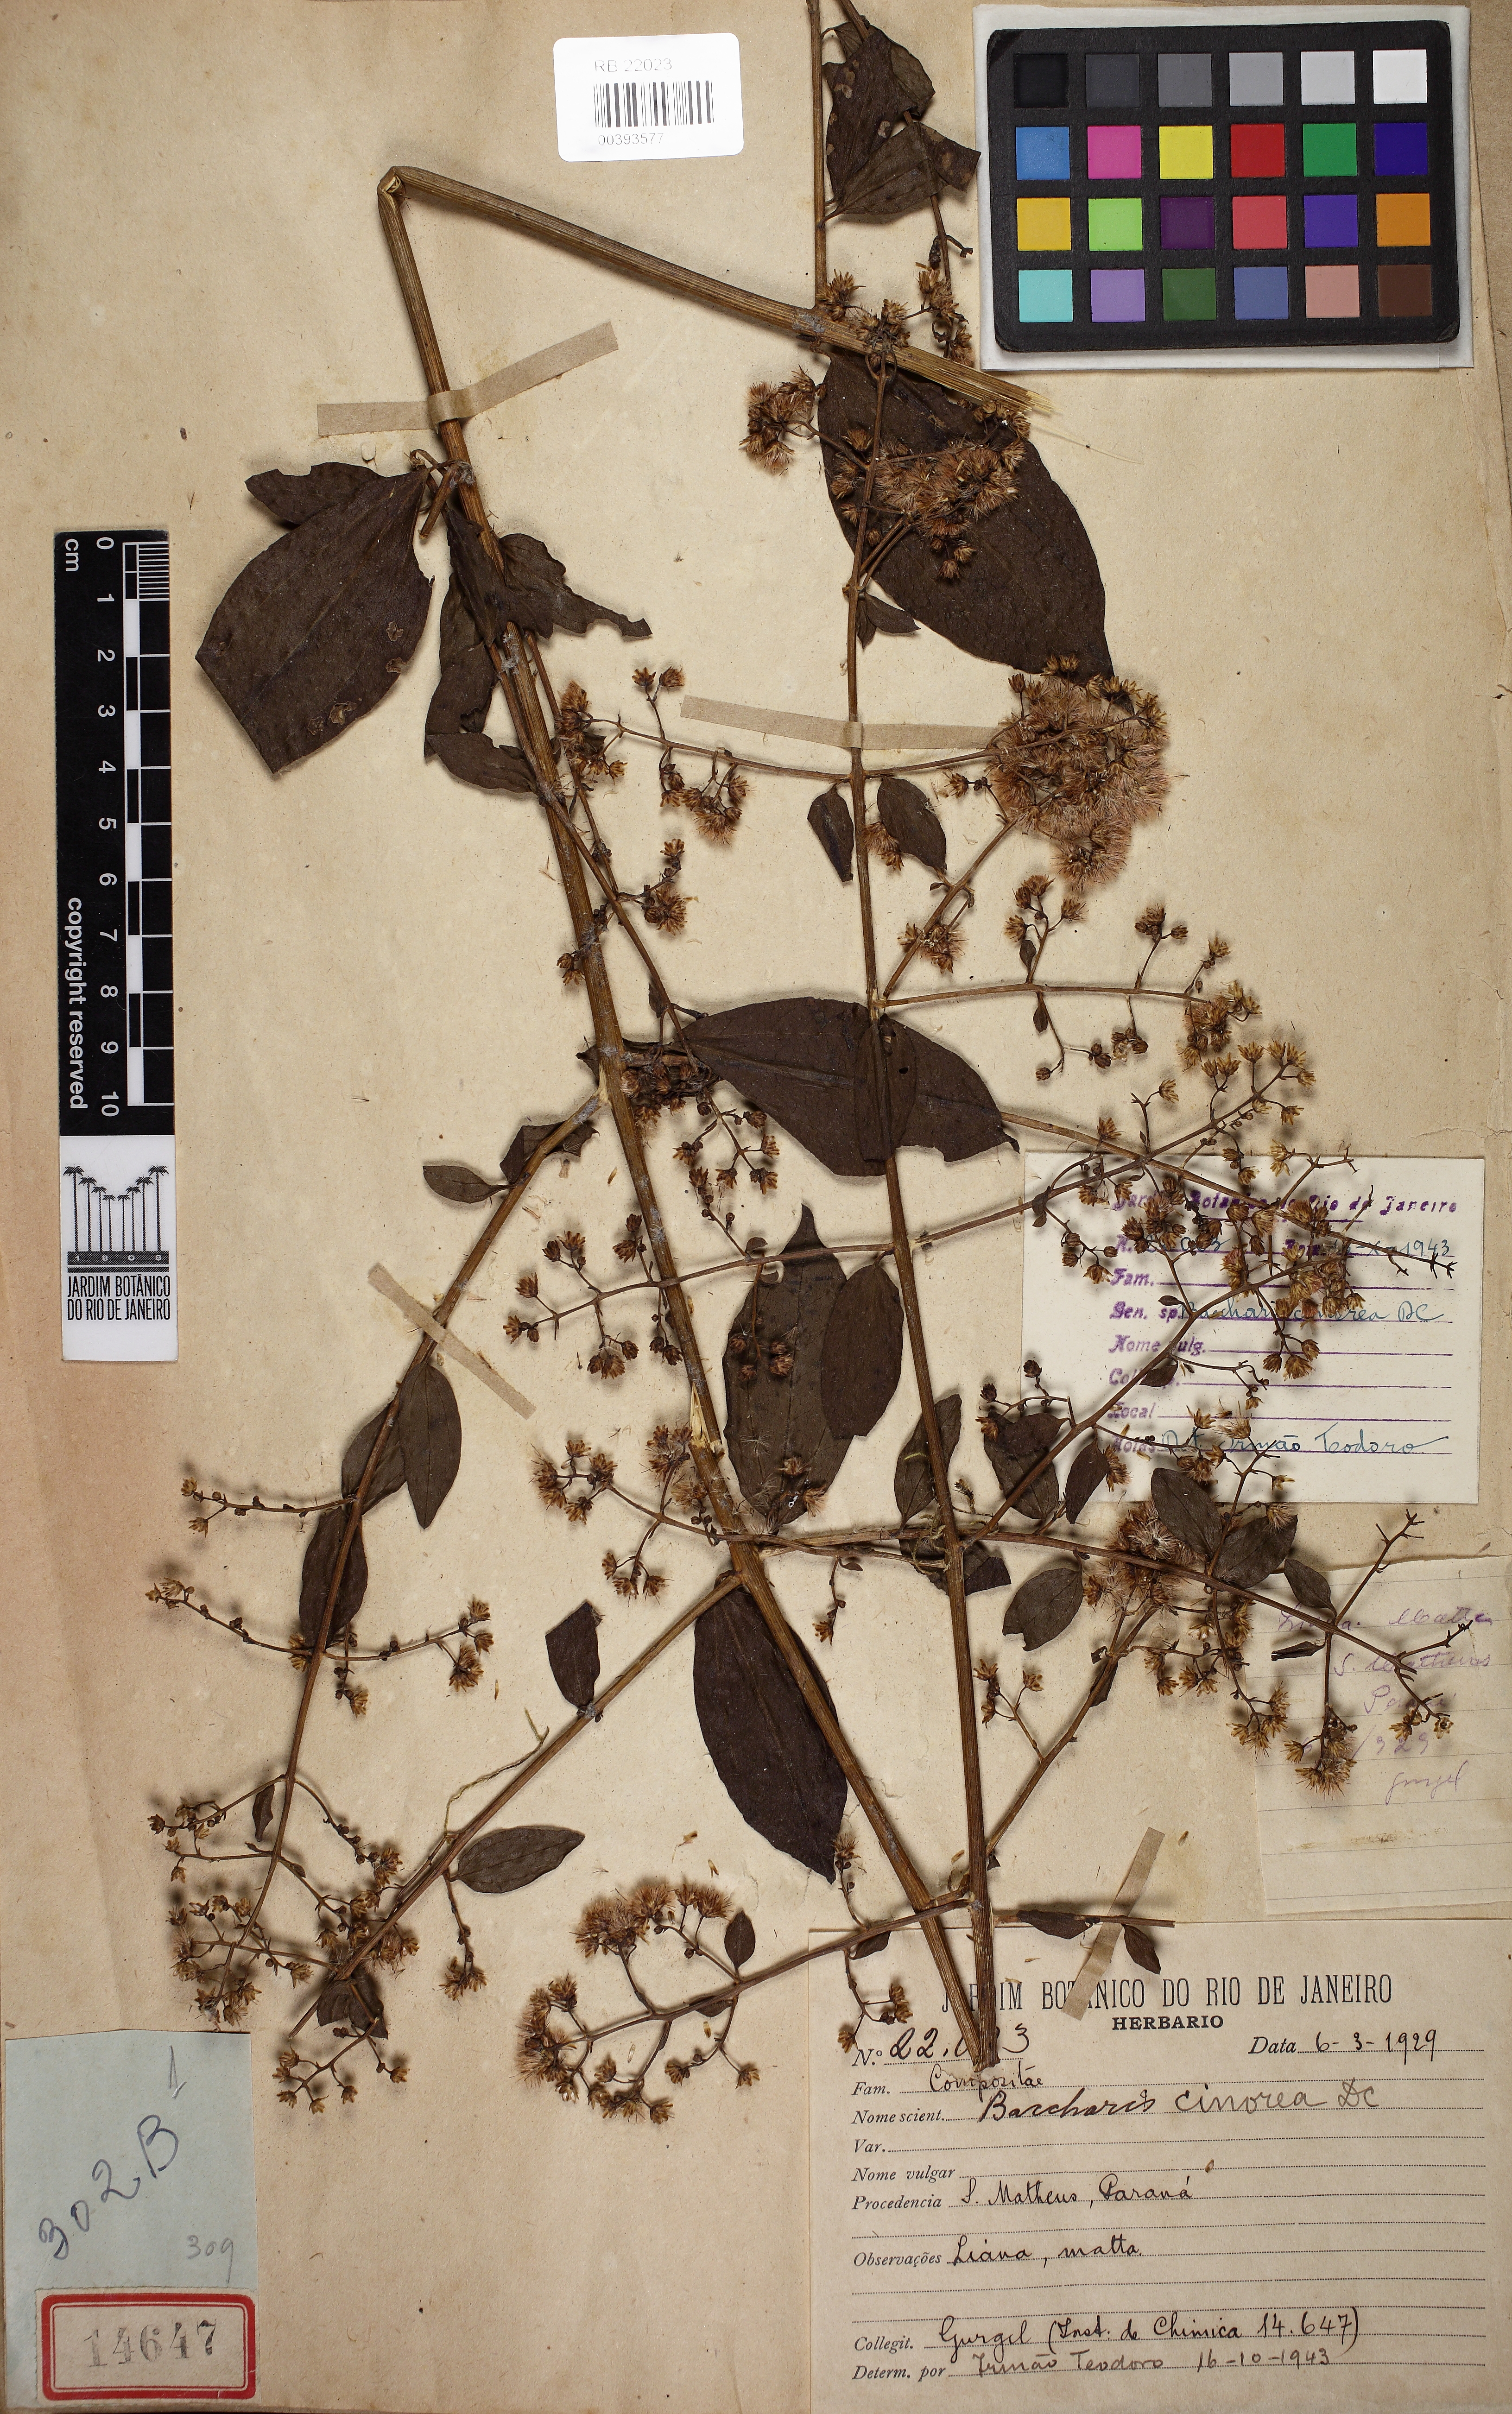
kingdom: Plantae
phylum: Tracheophyta
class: Magnoliopsida
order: Asterales
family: Asteraceae
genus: Baccharis
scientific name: Baccharis trinervis
